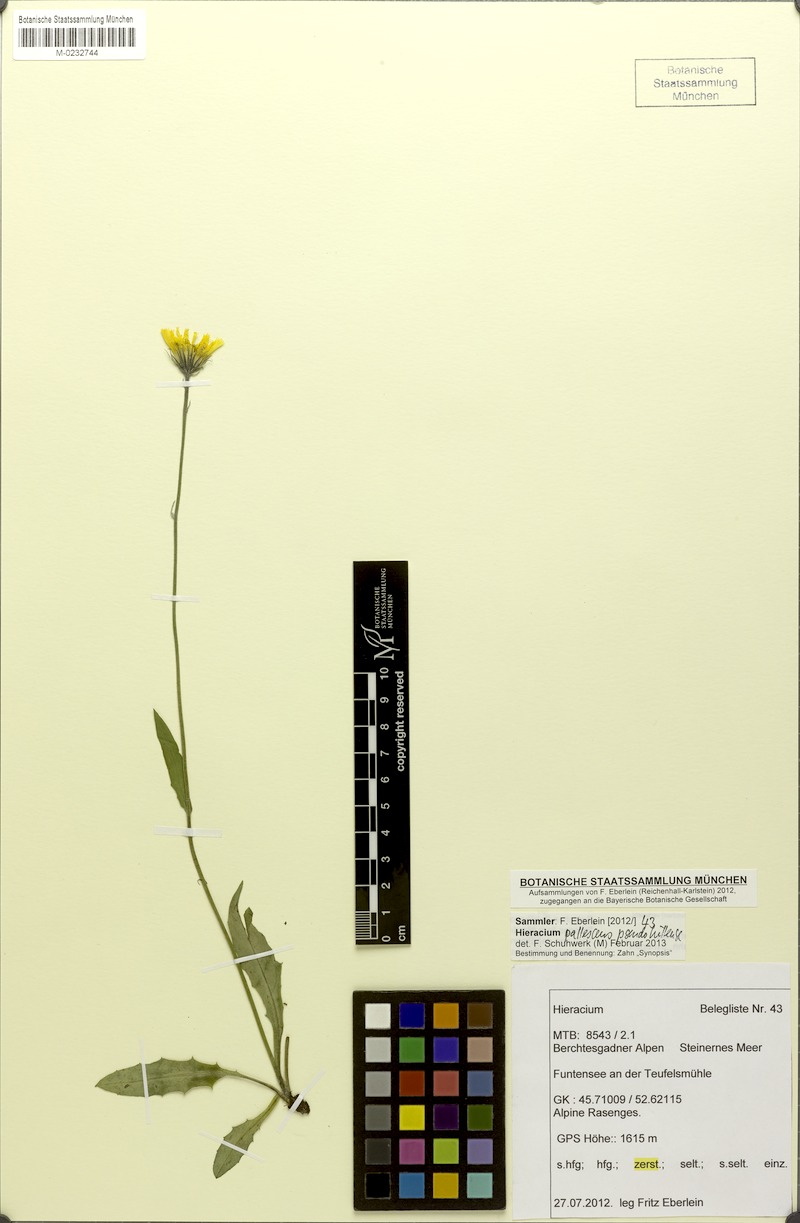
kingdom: Plantae
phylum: Tracheophyta
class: Magnoliopsida
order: Asterales
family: Asteraceae
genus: Hieracium
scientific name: Hieracium pallescens
